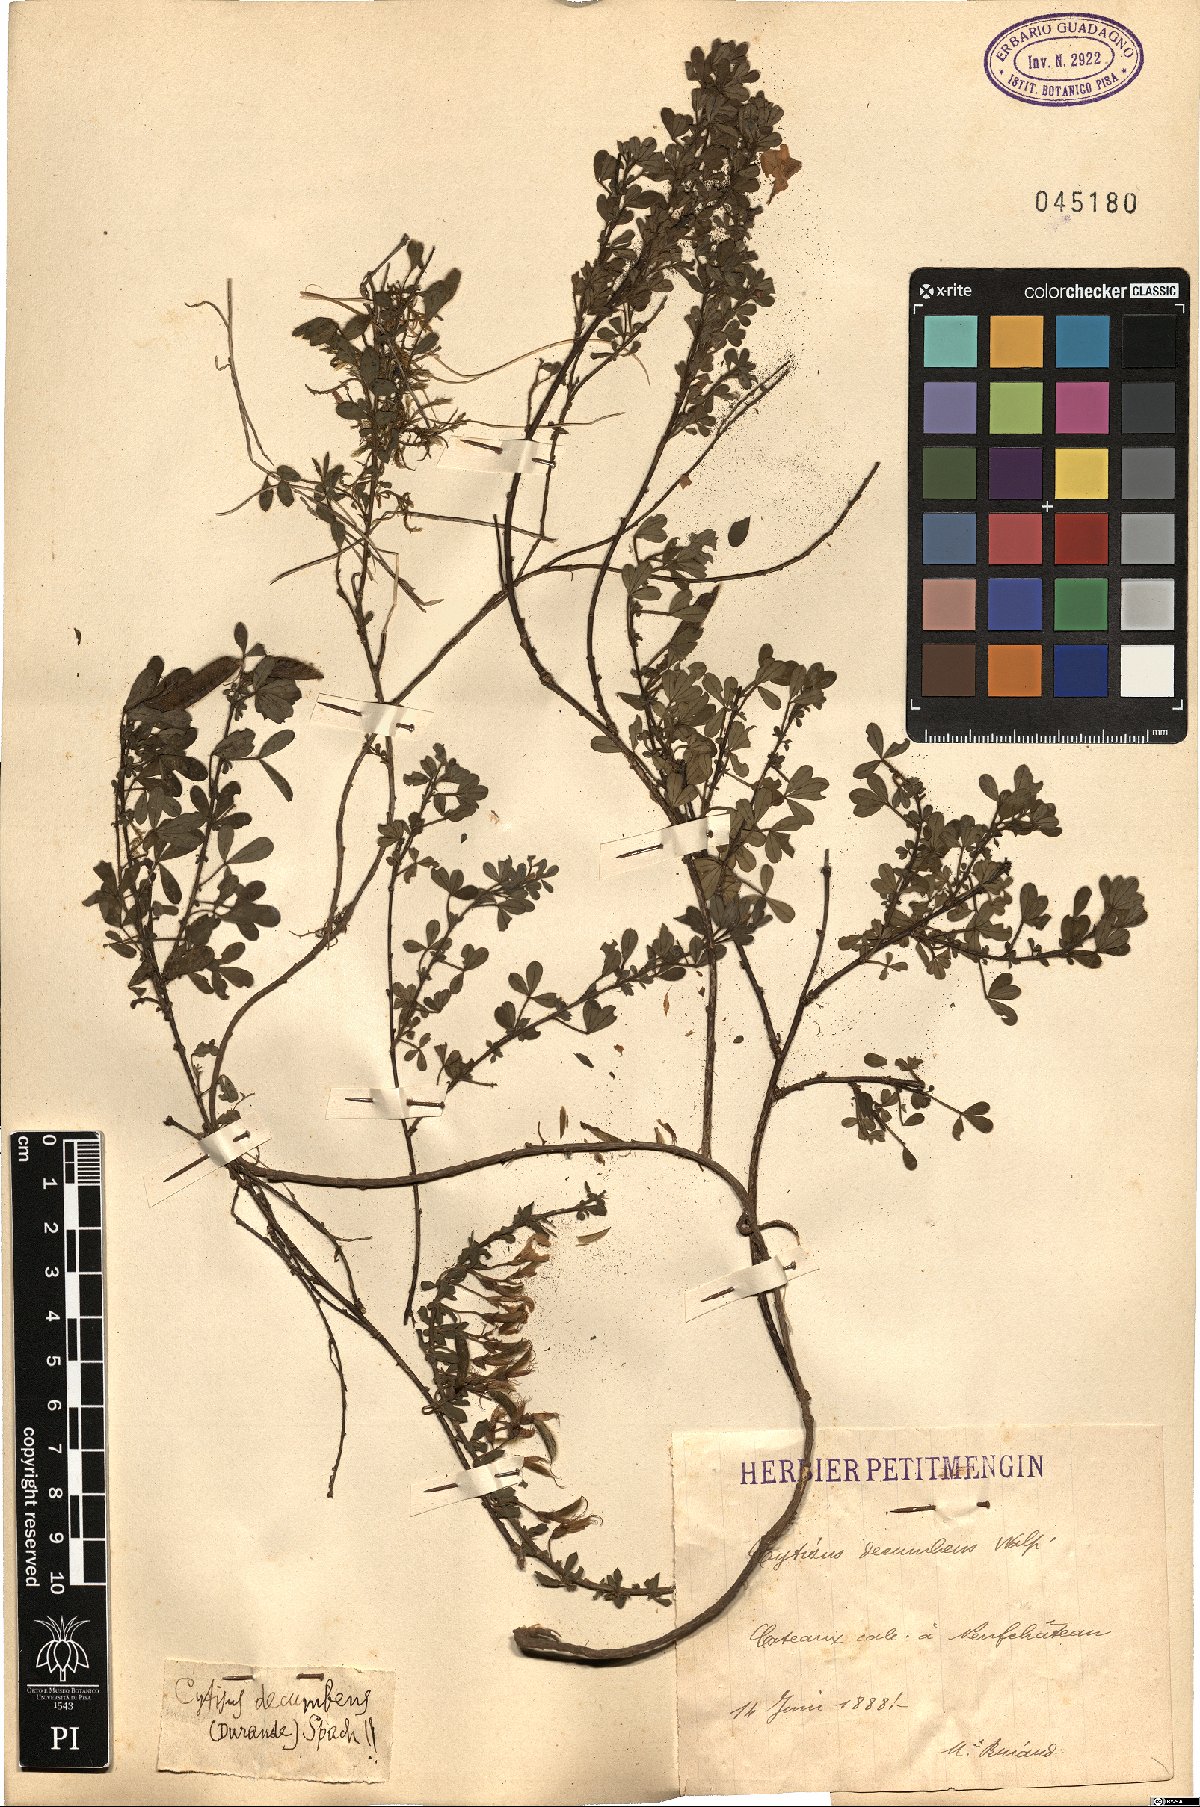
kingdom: Plantae
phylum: Tracheophyta
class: Magnoliopsida
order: Fabales
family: Fabaceae
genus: Cytisus
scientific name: Cytisus decumbens
